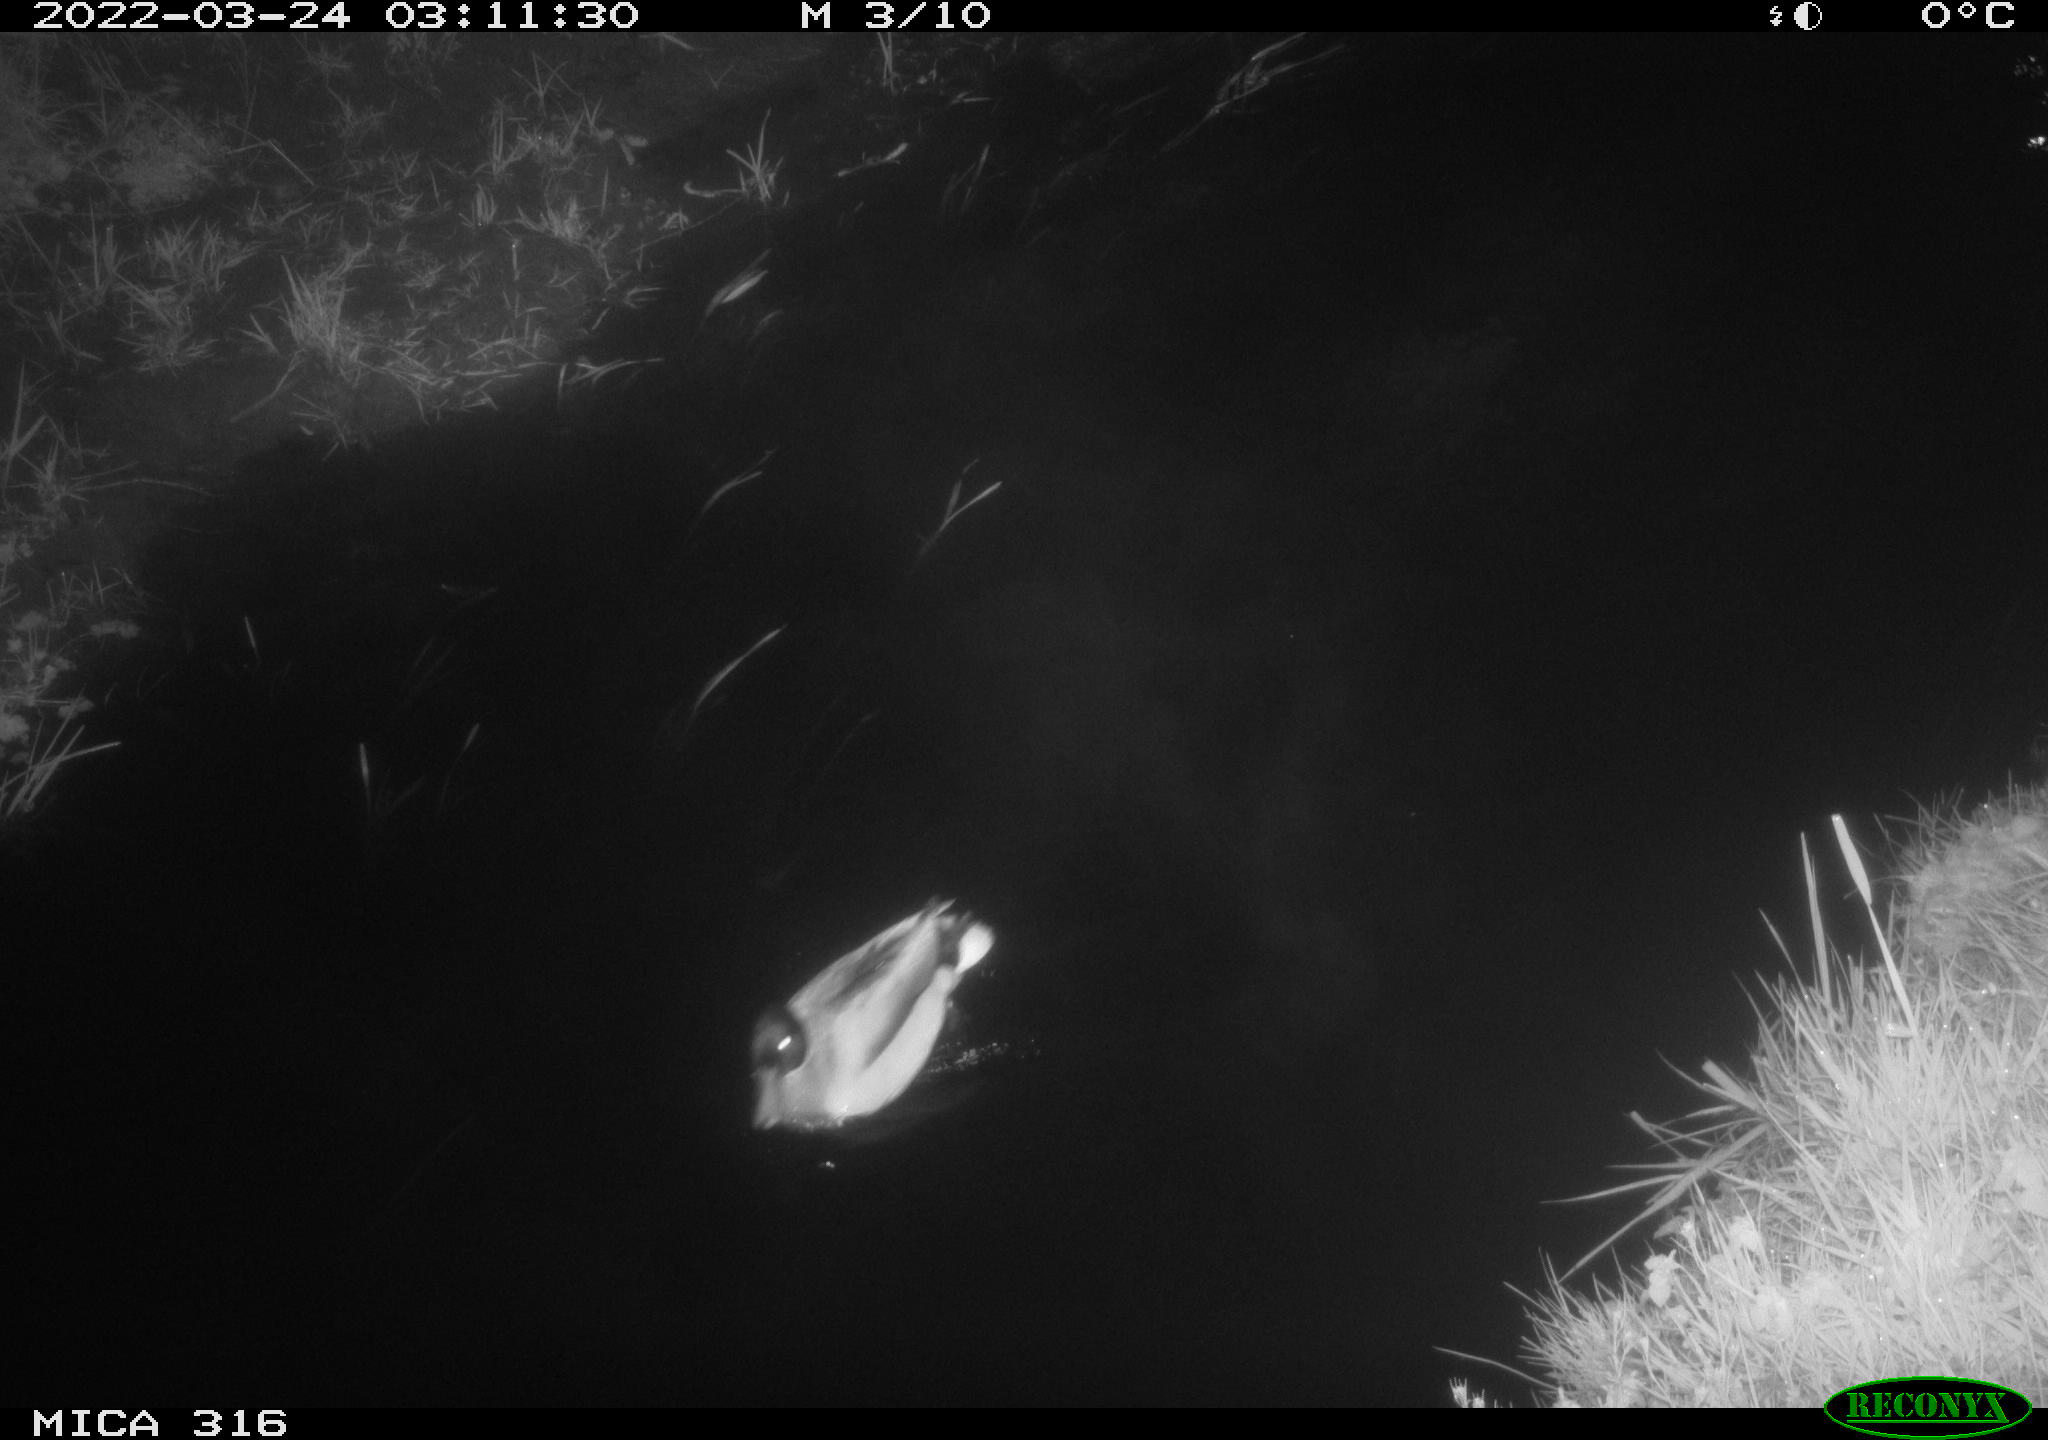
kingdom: Animalia
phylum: Chordata
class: Aves
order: Anseriformes
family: Anatidae
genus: Anas
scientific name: Anas platyrhynchos
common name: Mallard
